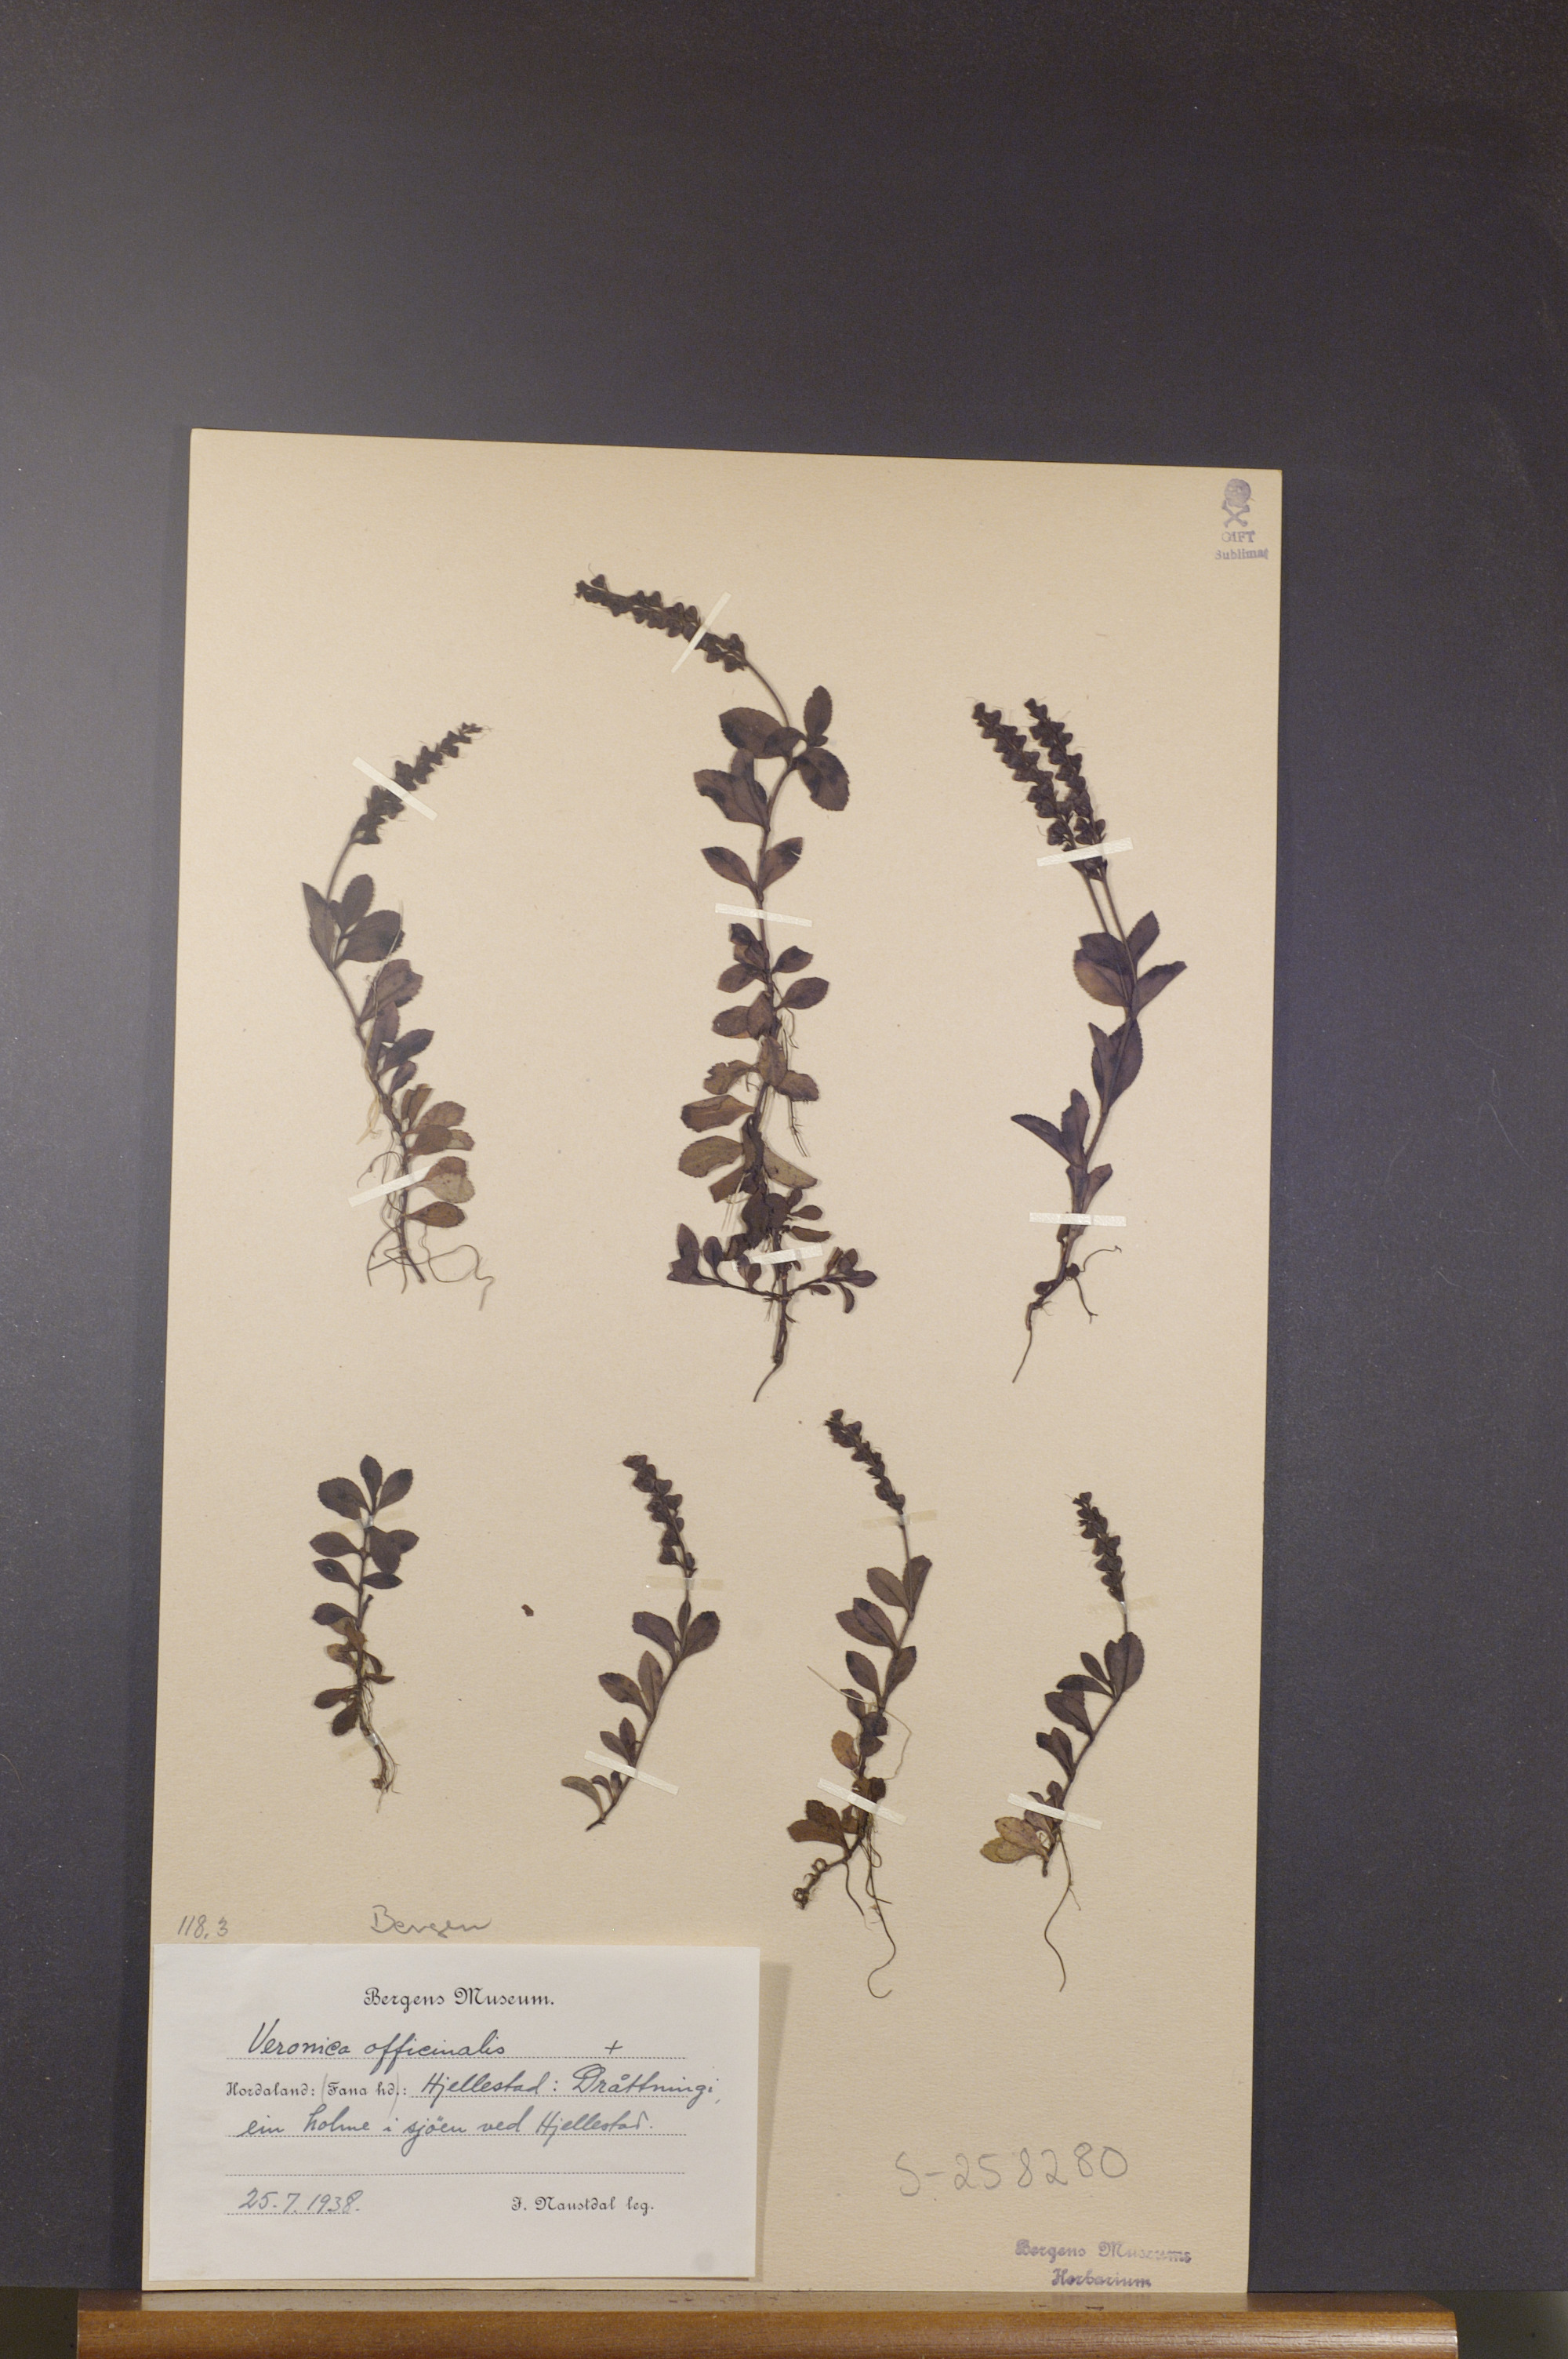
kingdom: Plantae
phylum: Tracheophyta
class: Magnoliopsida
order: Lamiales
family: Plantaginaceae
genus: Veronica
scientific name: Veronica officinalis
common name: Common speedwell
